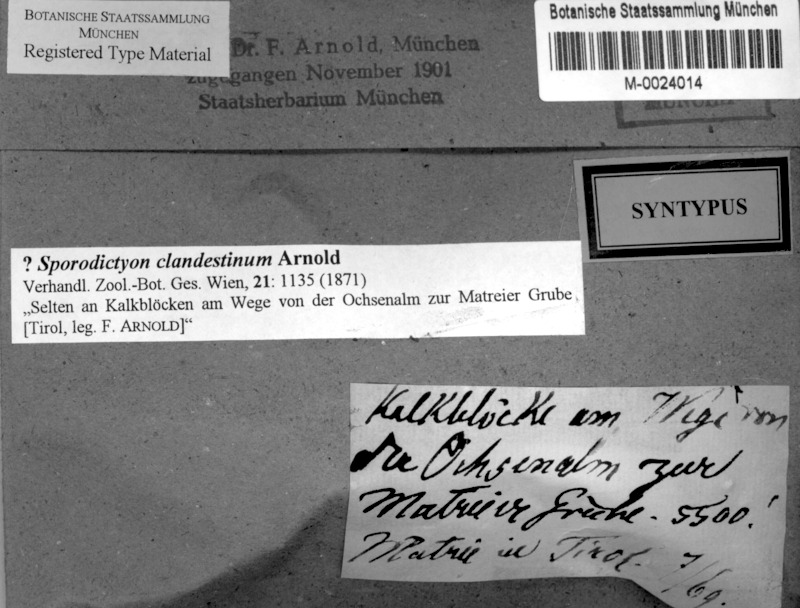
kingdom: Fungi
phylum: Ascomycota
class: Eurotiomycetes
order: Verrucariales
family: Verrucariaceae
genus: Sporodictyon
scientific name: Sporodictyon clandestinum
